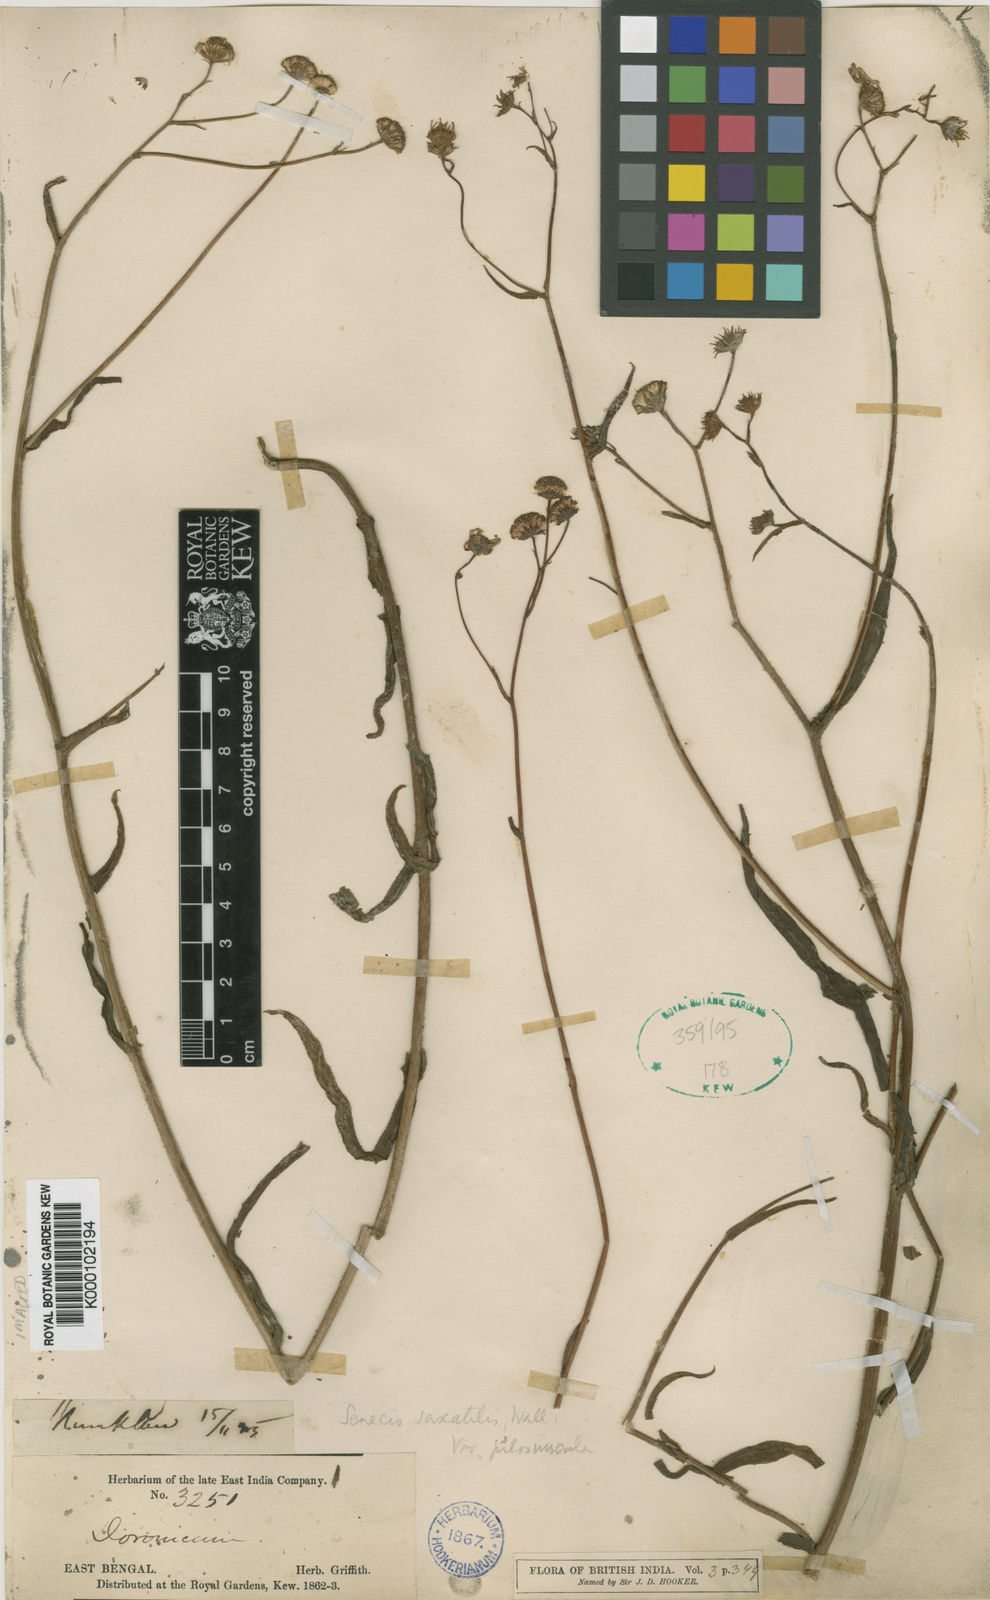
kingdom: Plantae
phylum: Tracheophyta
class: Magnoliopsida
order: Asterales
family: Asteraceae
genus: Senecio
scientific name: Senecio wightii
